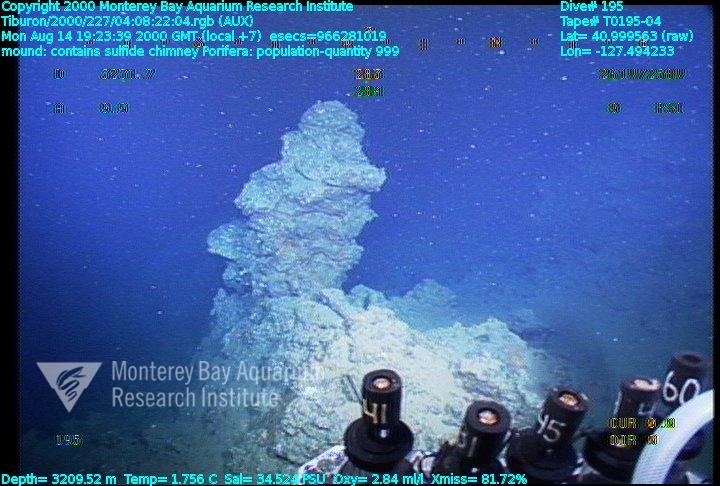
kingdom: Animalia
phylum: Porifera
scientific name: Porifera
